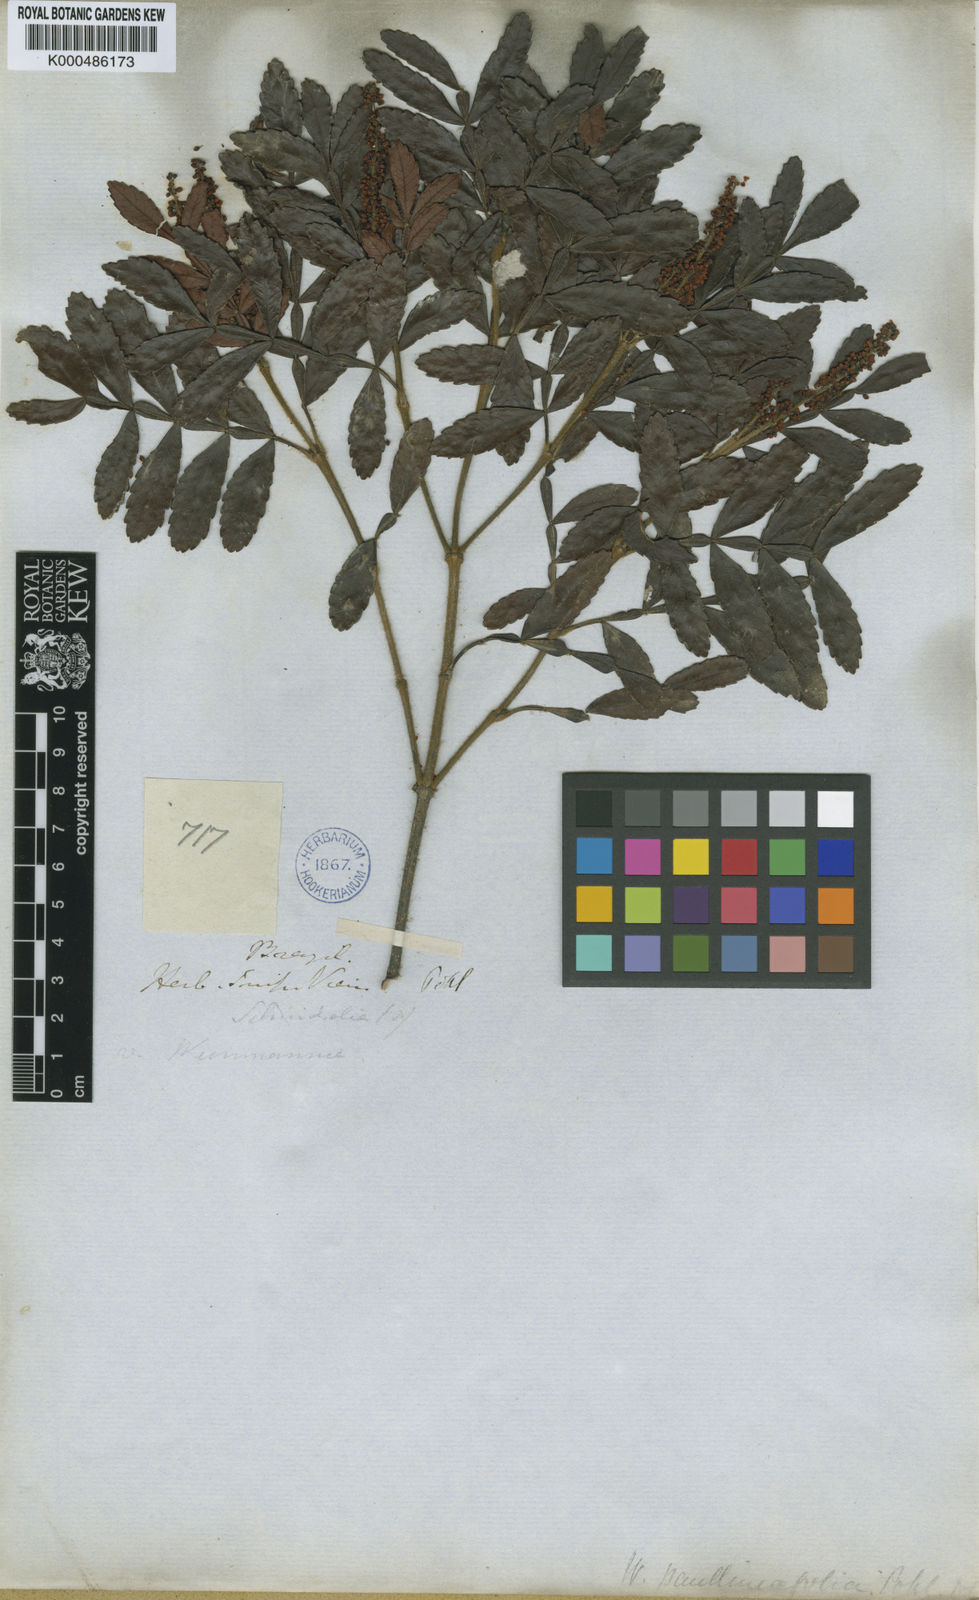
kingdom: Plantae
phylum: Tracheophyta
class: Magnoliopsida
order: Oxalidales
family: Cunoniaceae
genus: Weinmannia
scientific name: Weinmannia
